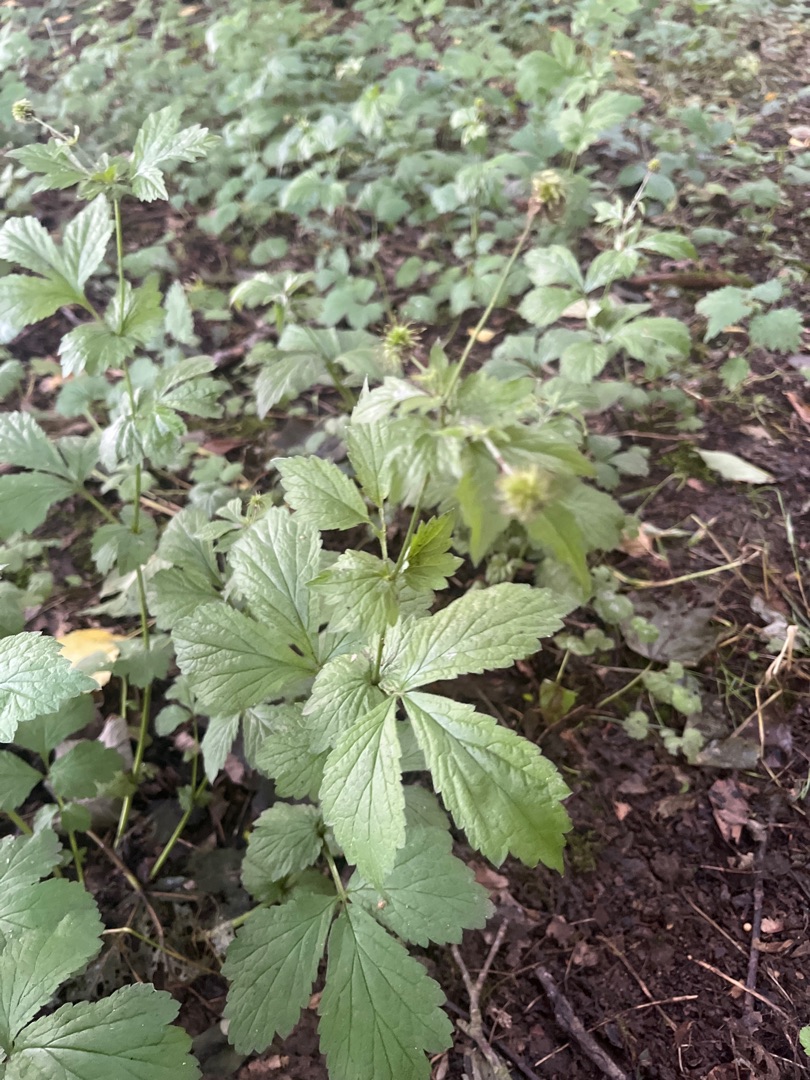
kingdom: Plantae
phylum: Tracheophyta
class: Magnoliopsida
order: Rosales
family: Rosaceae
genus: Geum
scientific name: Geum urbanum
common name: Feber-nellikerod
